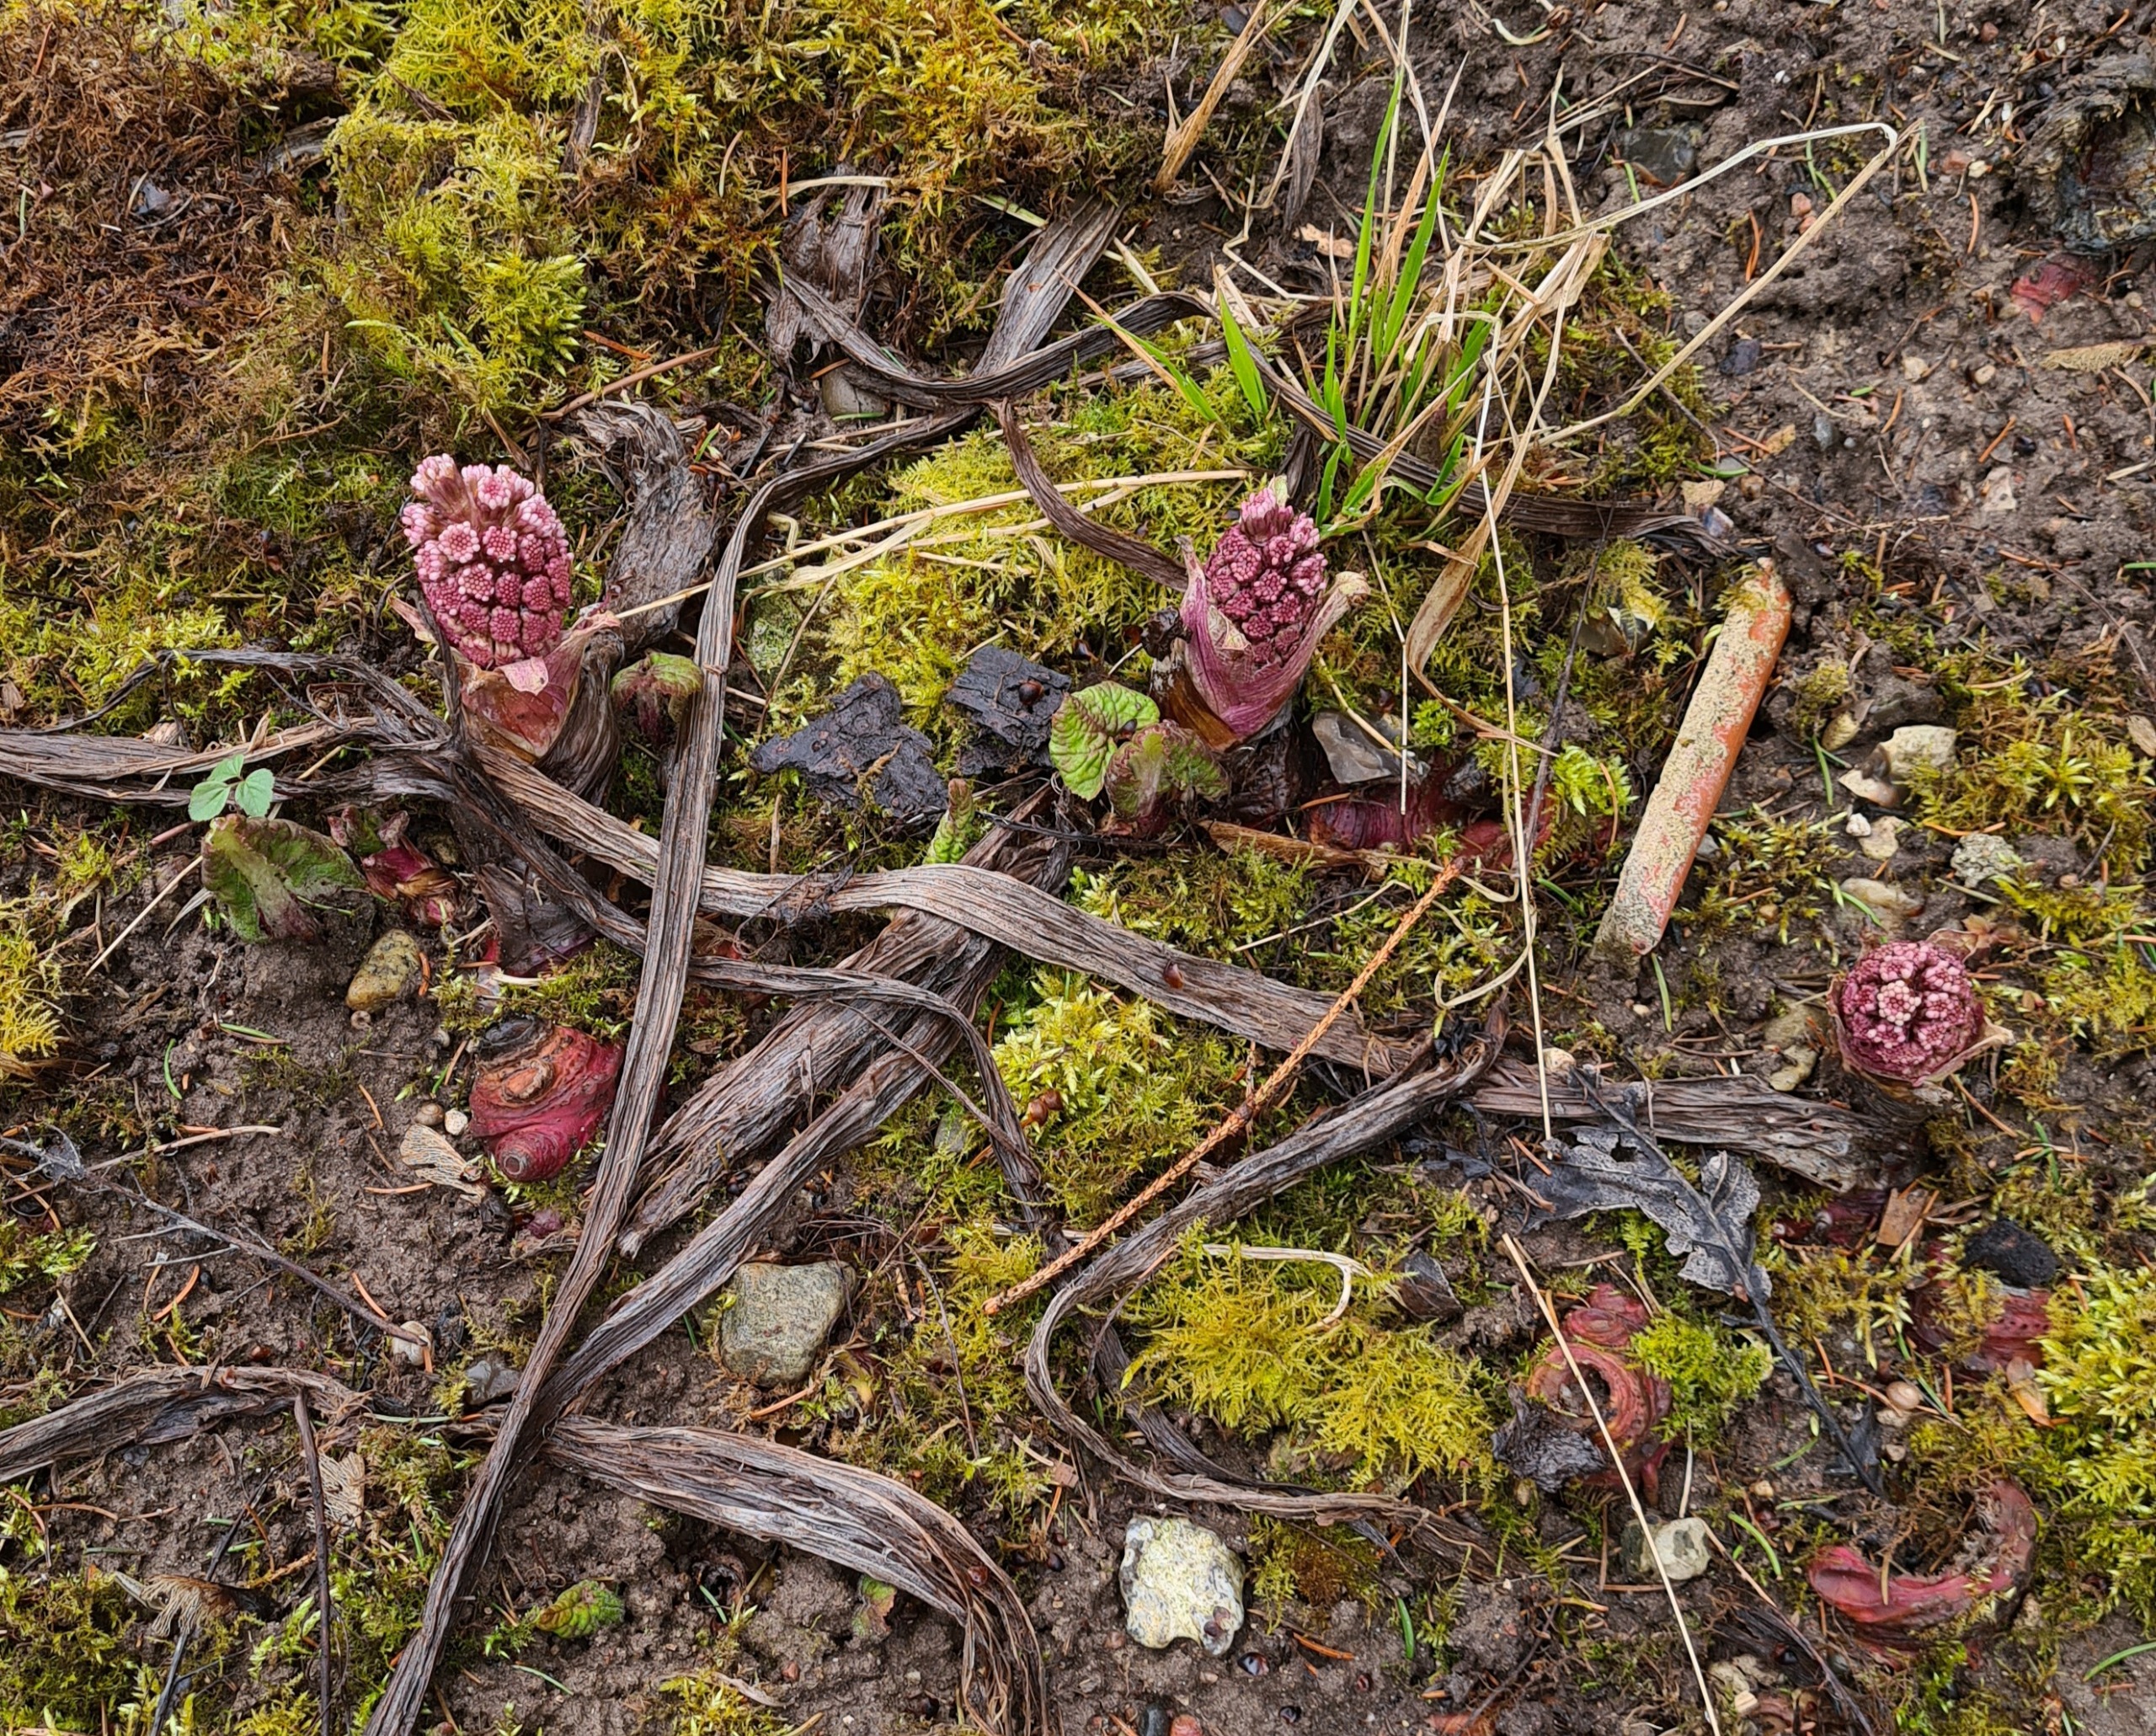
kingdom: Plantae
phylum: Tracheophyta
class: Magnoliopsida
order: Asterales
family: Asteraceae
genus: Petasites
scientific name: Petasites hybridus
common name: Rød hestehov
